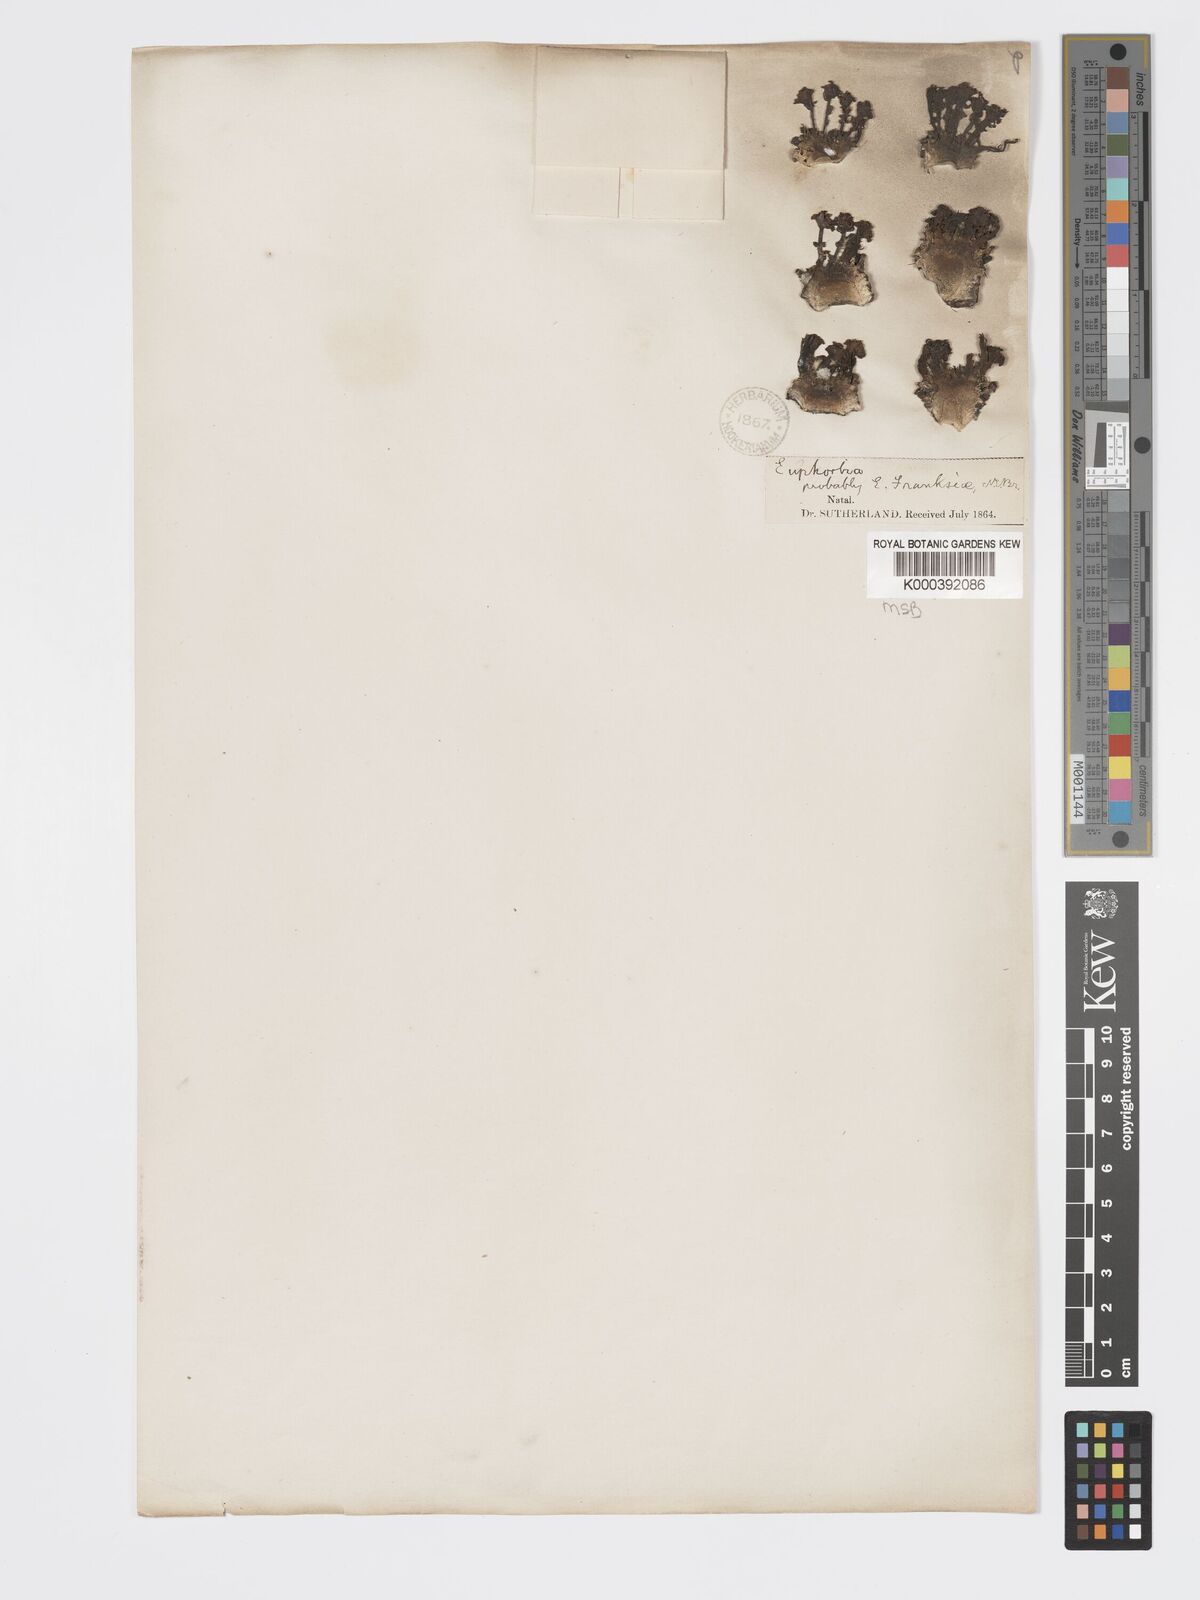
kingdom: Plantae
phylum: Tracheophyta
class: Magnoliopsida
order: Malpighiales
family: Euphorbiaceae
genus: Euphorbia
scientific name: Euphorbia flanaganii
